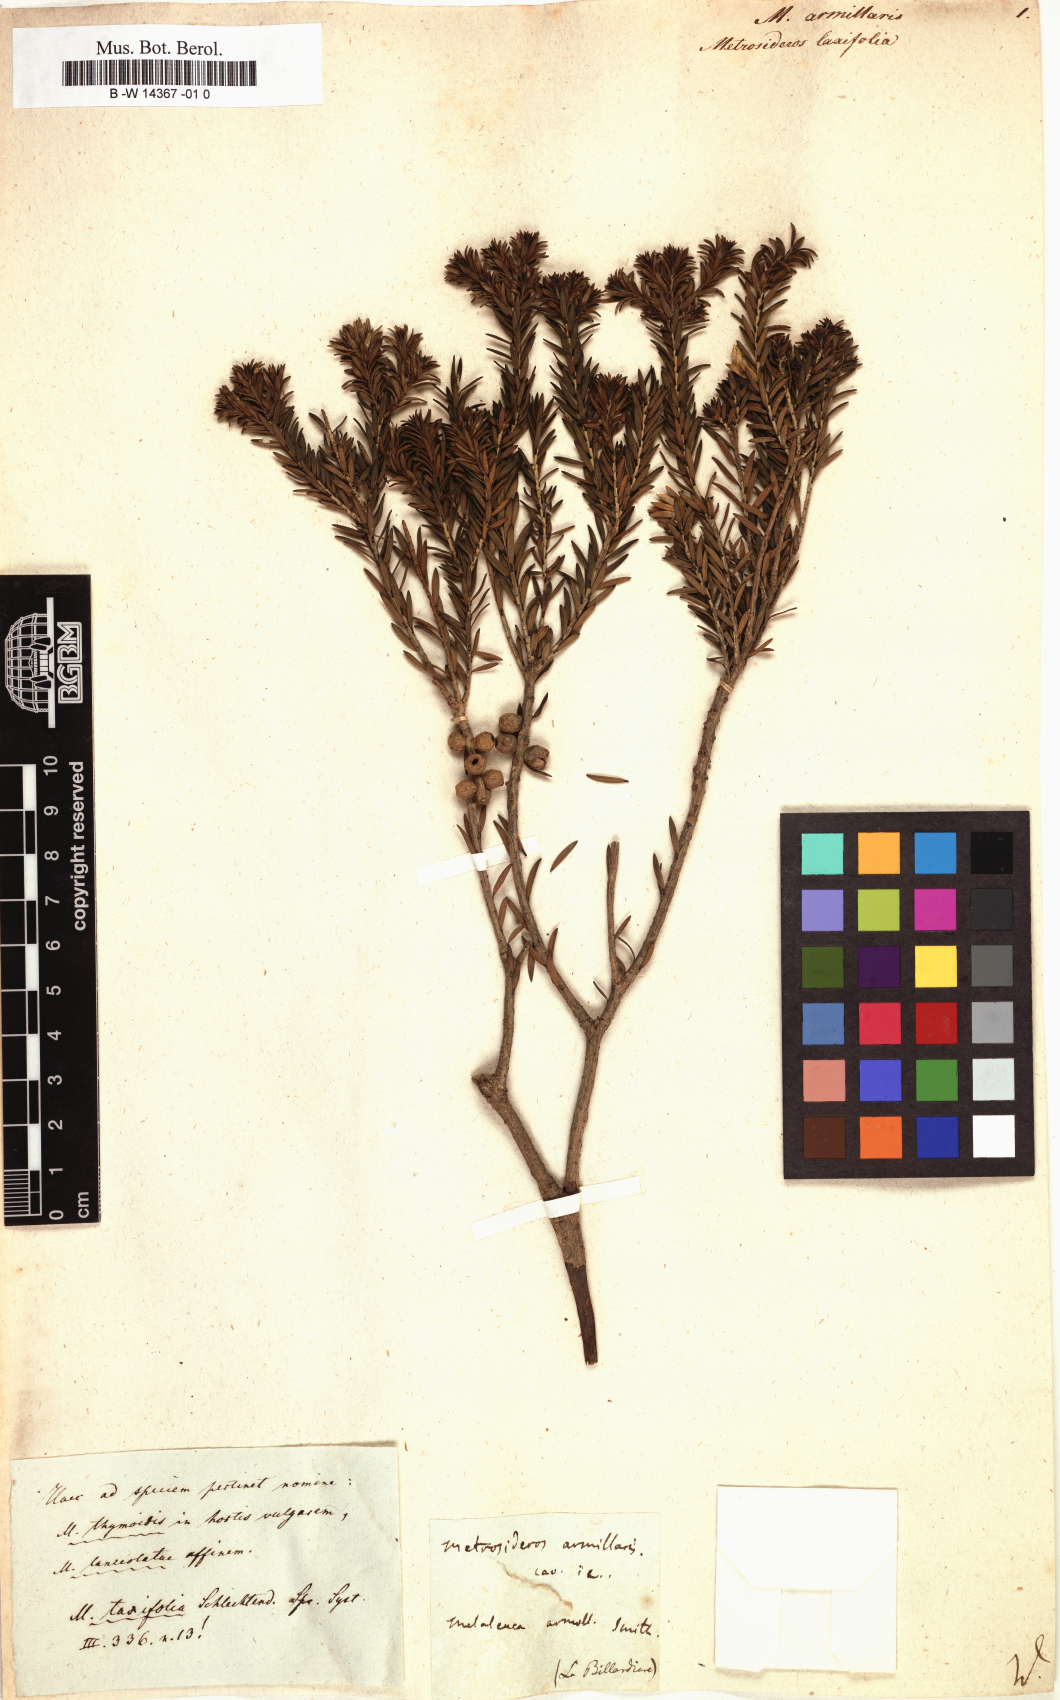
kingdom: Plantae
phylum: Tracheophyta
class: Magnoliopsida
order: Myrtales
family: Myrtaceae
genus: Melaleuca
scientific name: Melaleuca armillaris
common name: Bracelet honey myrtle
